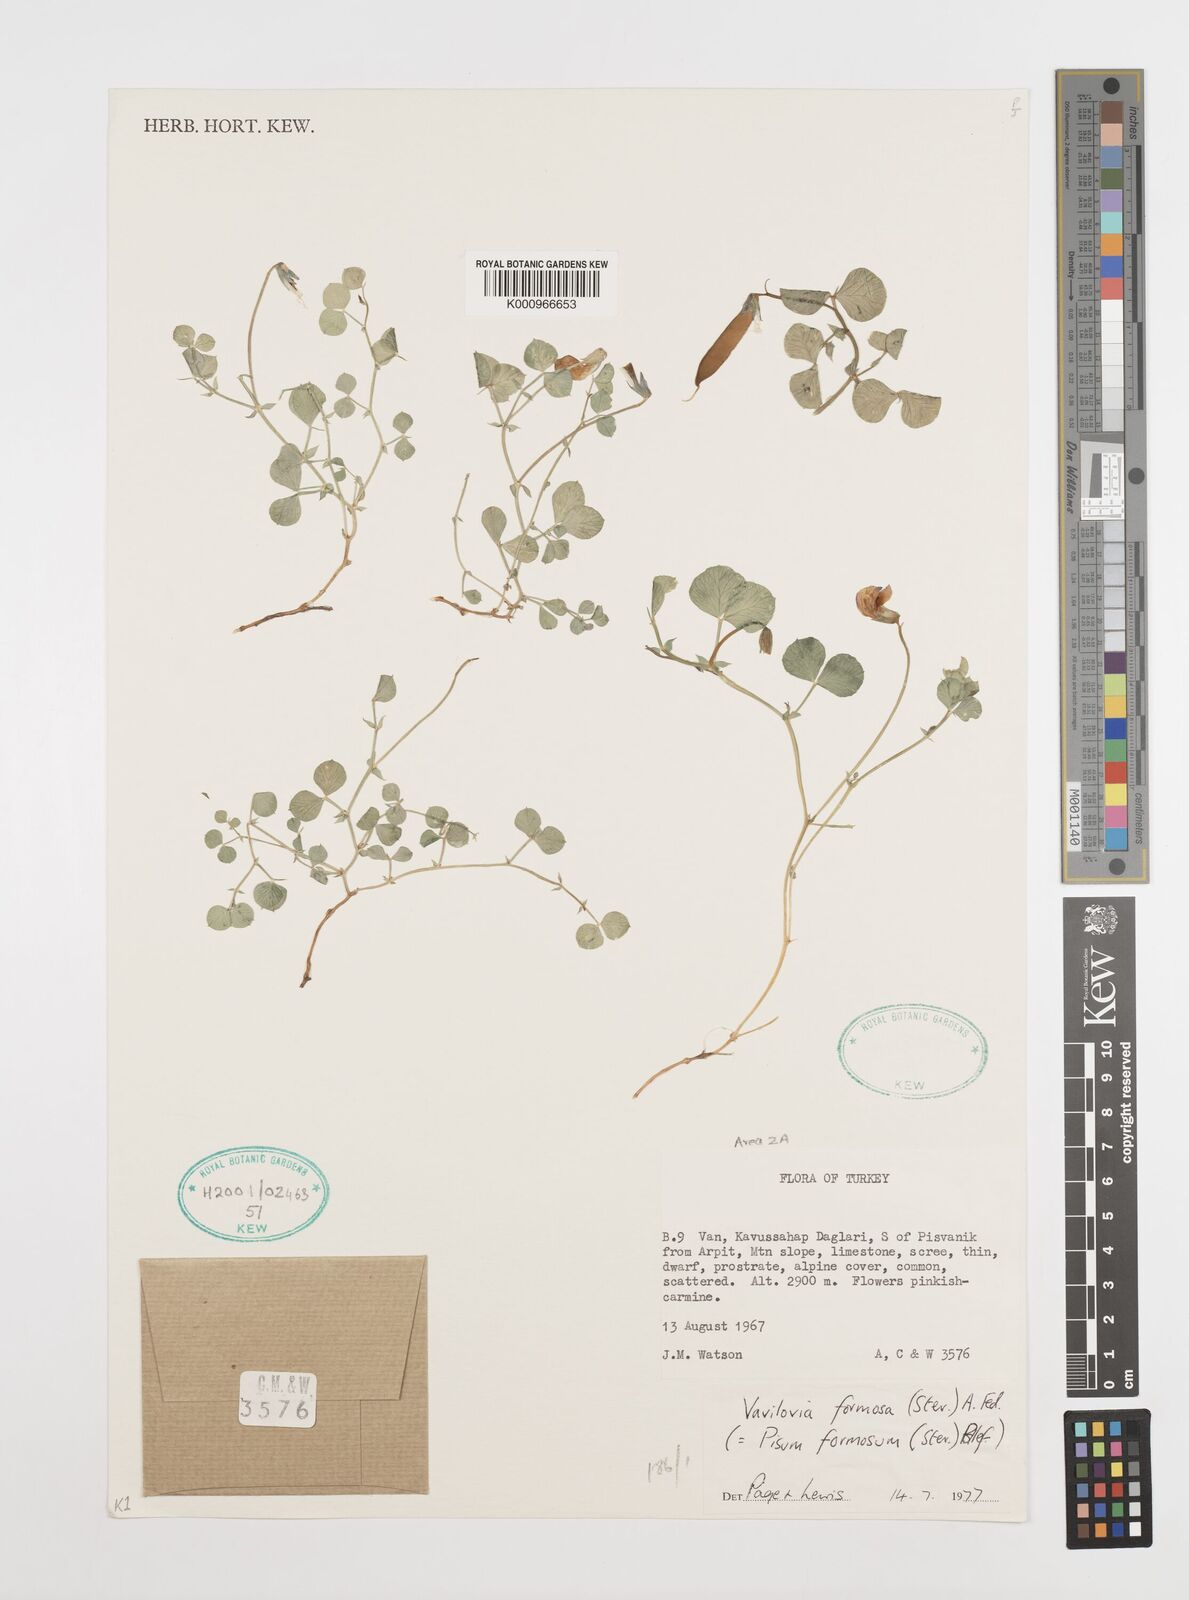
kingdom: Plantae
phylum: Tracheophyta
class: Magnoliopsida
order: Fabales
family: Fabaceae
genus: Lathyrus
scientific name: Lathyrus formosus
